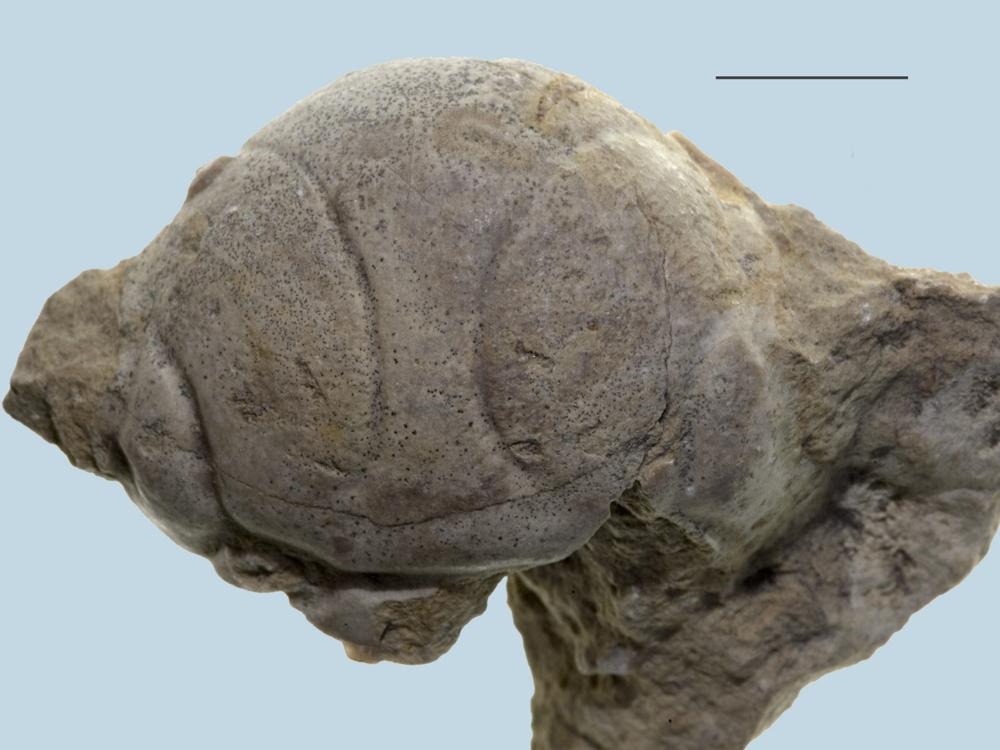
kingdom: Animalia
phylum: Arthropoda
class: Trilobita
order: Lichida
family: Lichidae
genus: Leiolichas
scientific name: Leiolichas illaenoides
